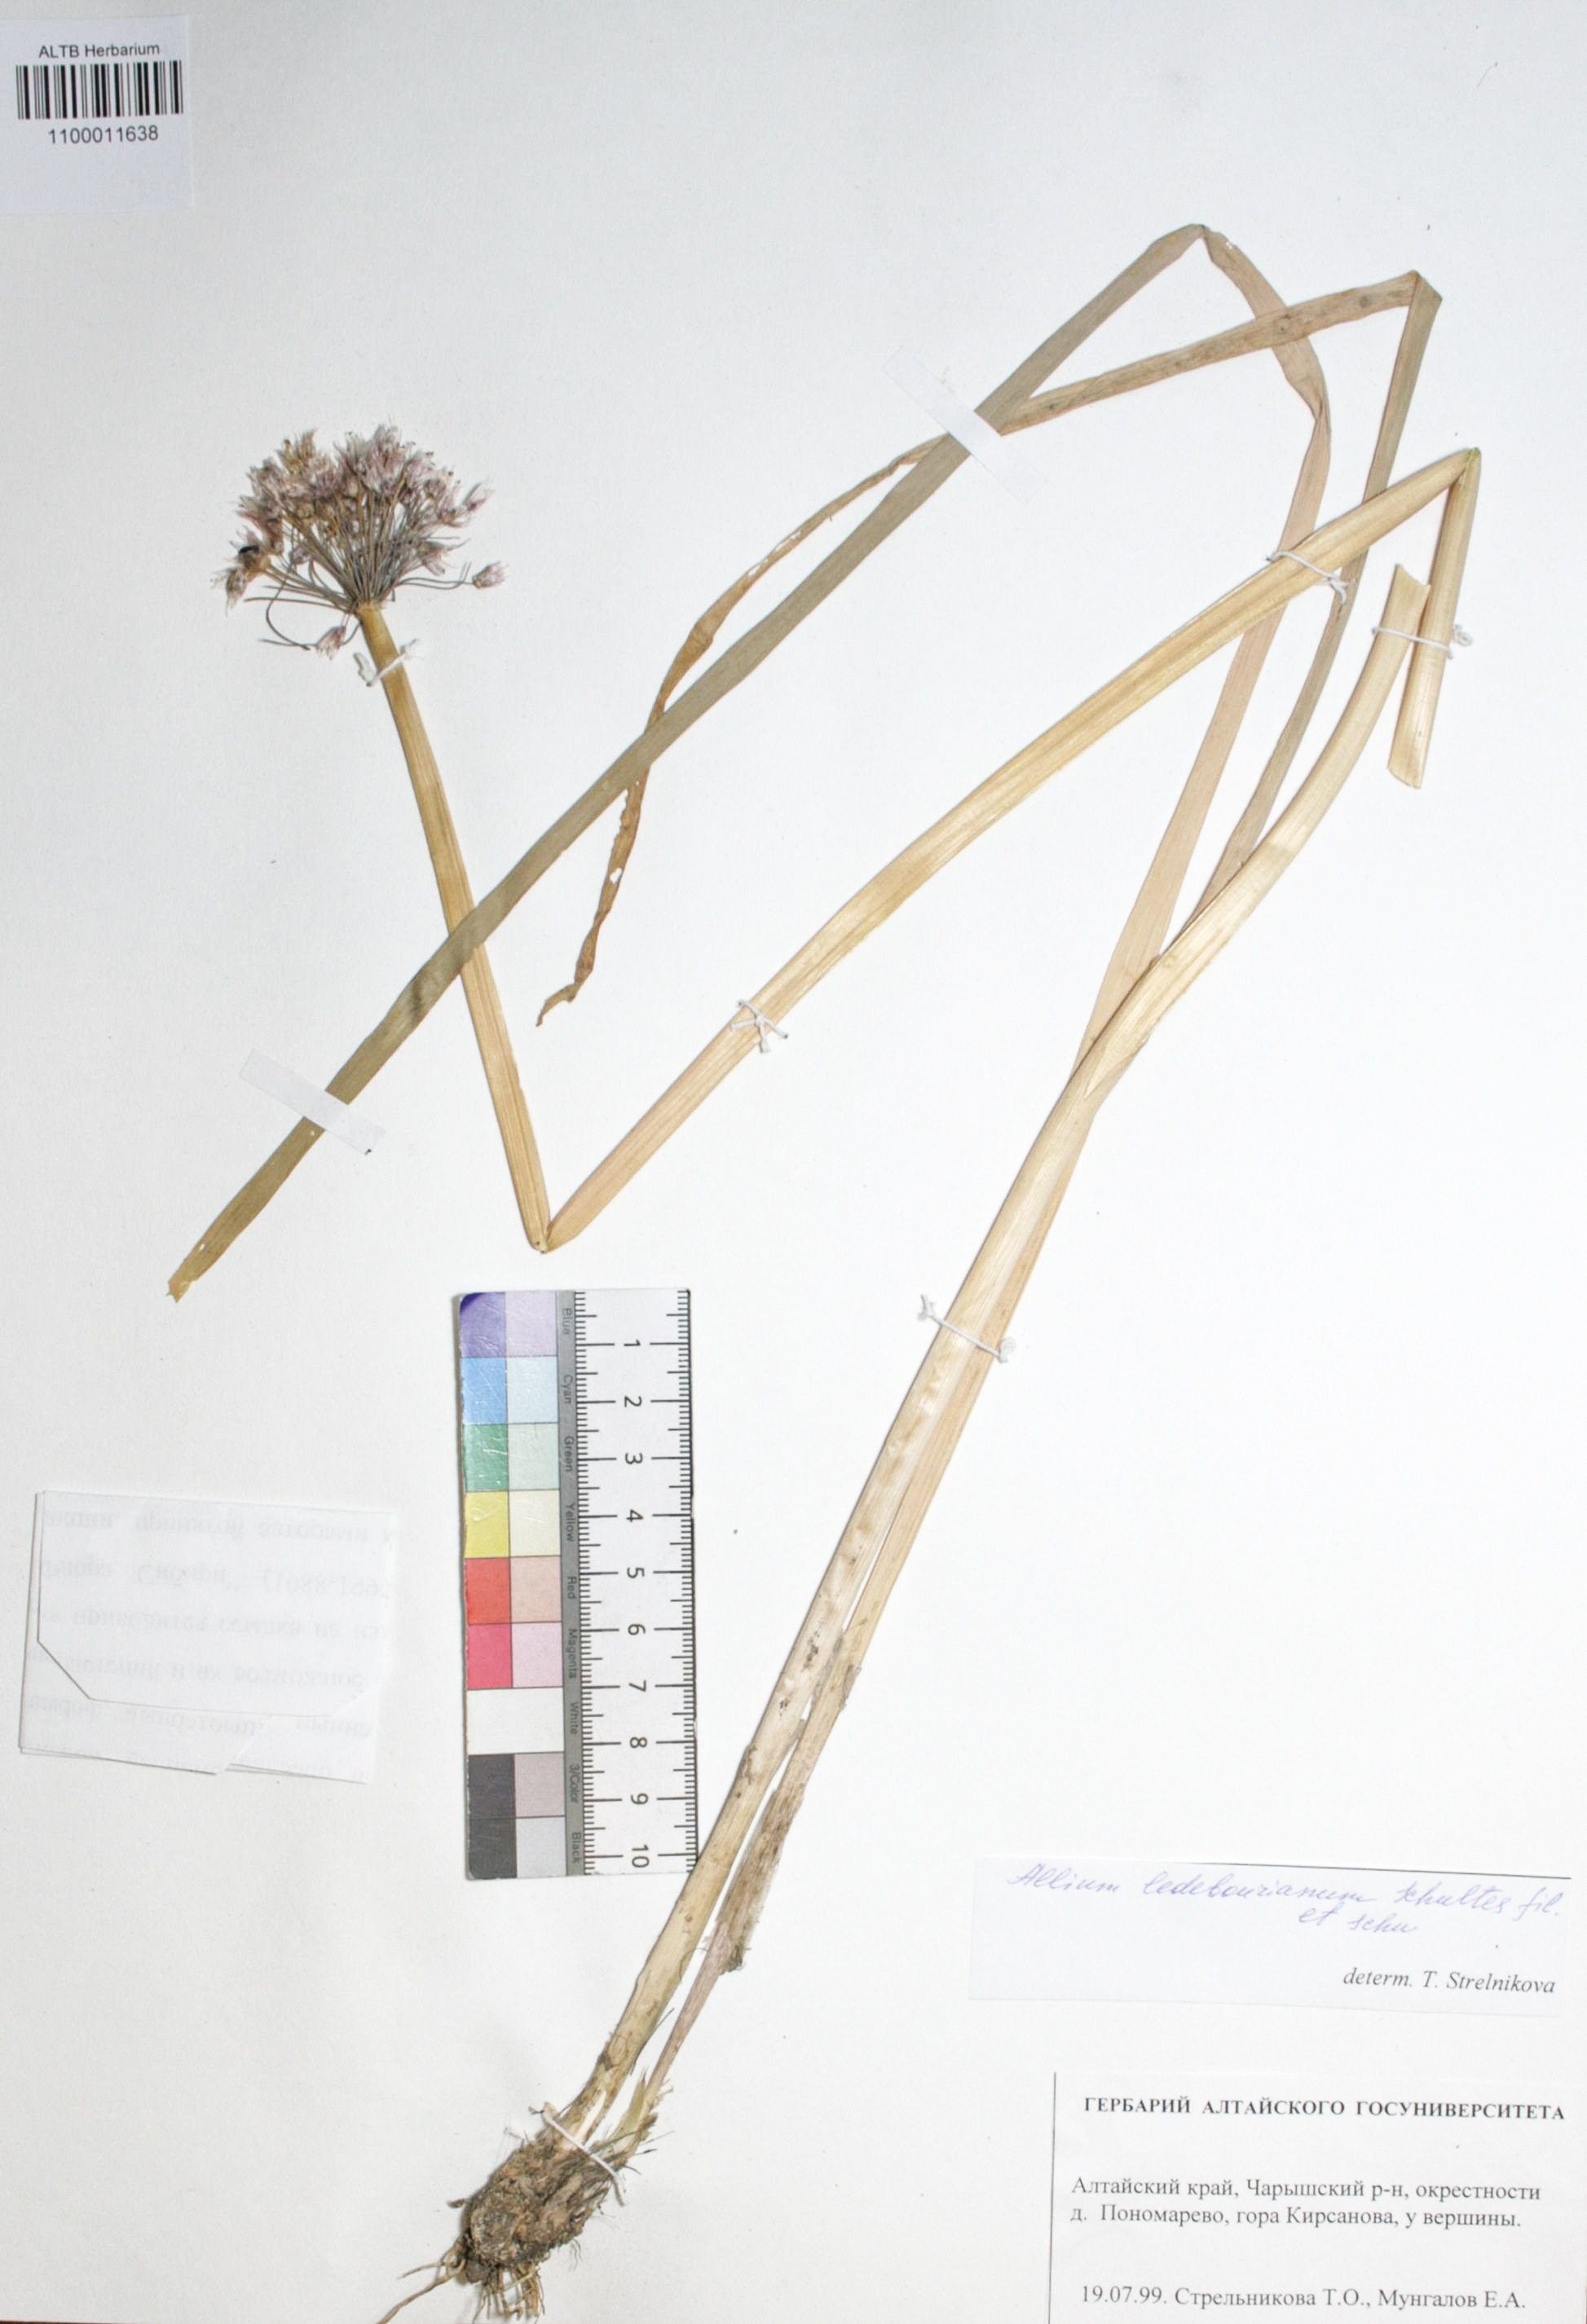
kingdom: Plantae
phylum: Tracheophyta
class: Liliopsida
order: Asparagales
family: Amaryllidaceae
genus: Allium
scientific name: Allium ledebourianum
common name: Ledebour chive
